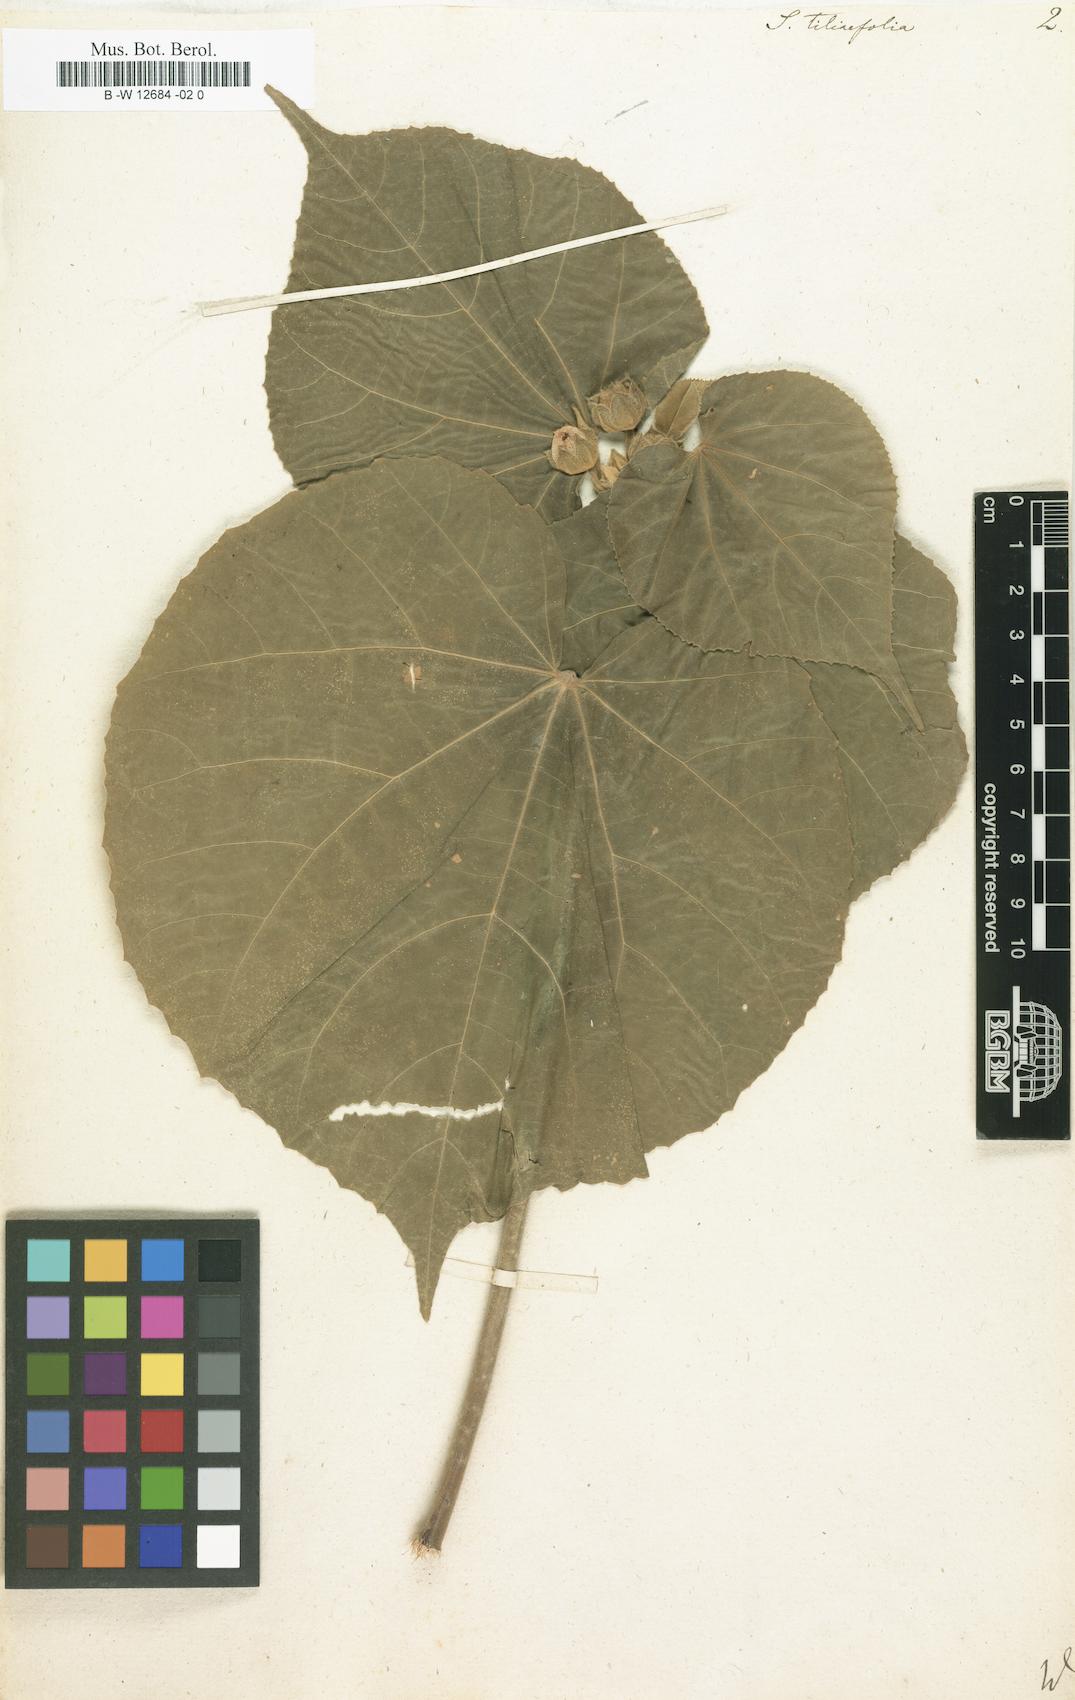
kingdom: Plantae
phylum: Tracheophyta
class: Magnoliopsida
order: Malvales
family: Malvaceae
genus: Abutilon
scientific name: Abutilon theophrasti
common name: Velvetleaf
